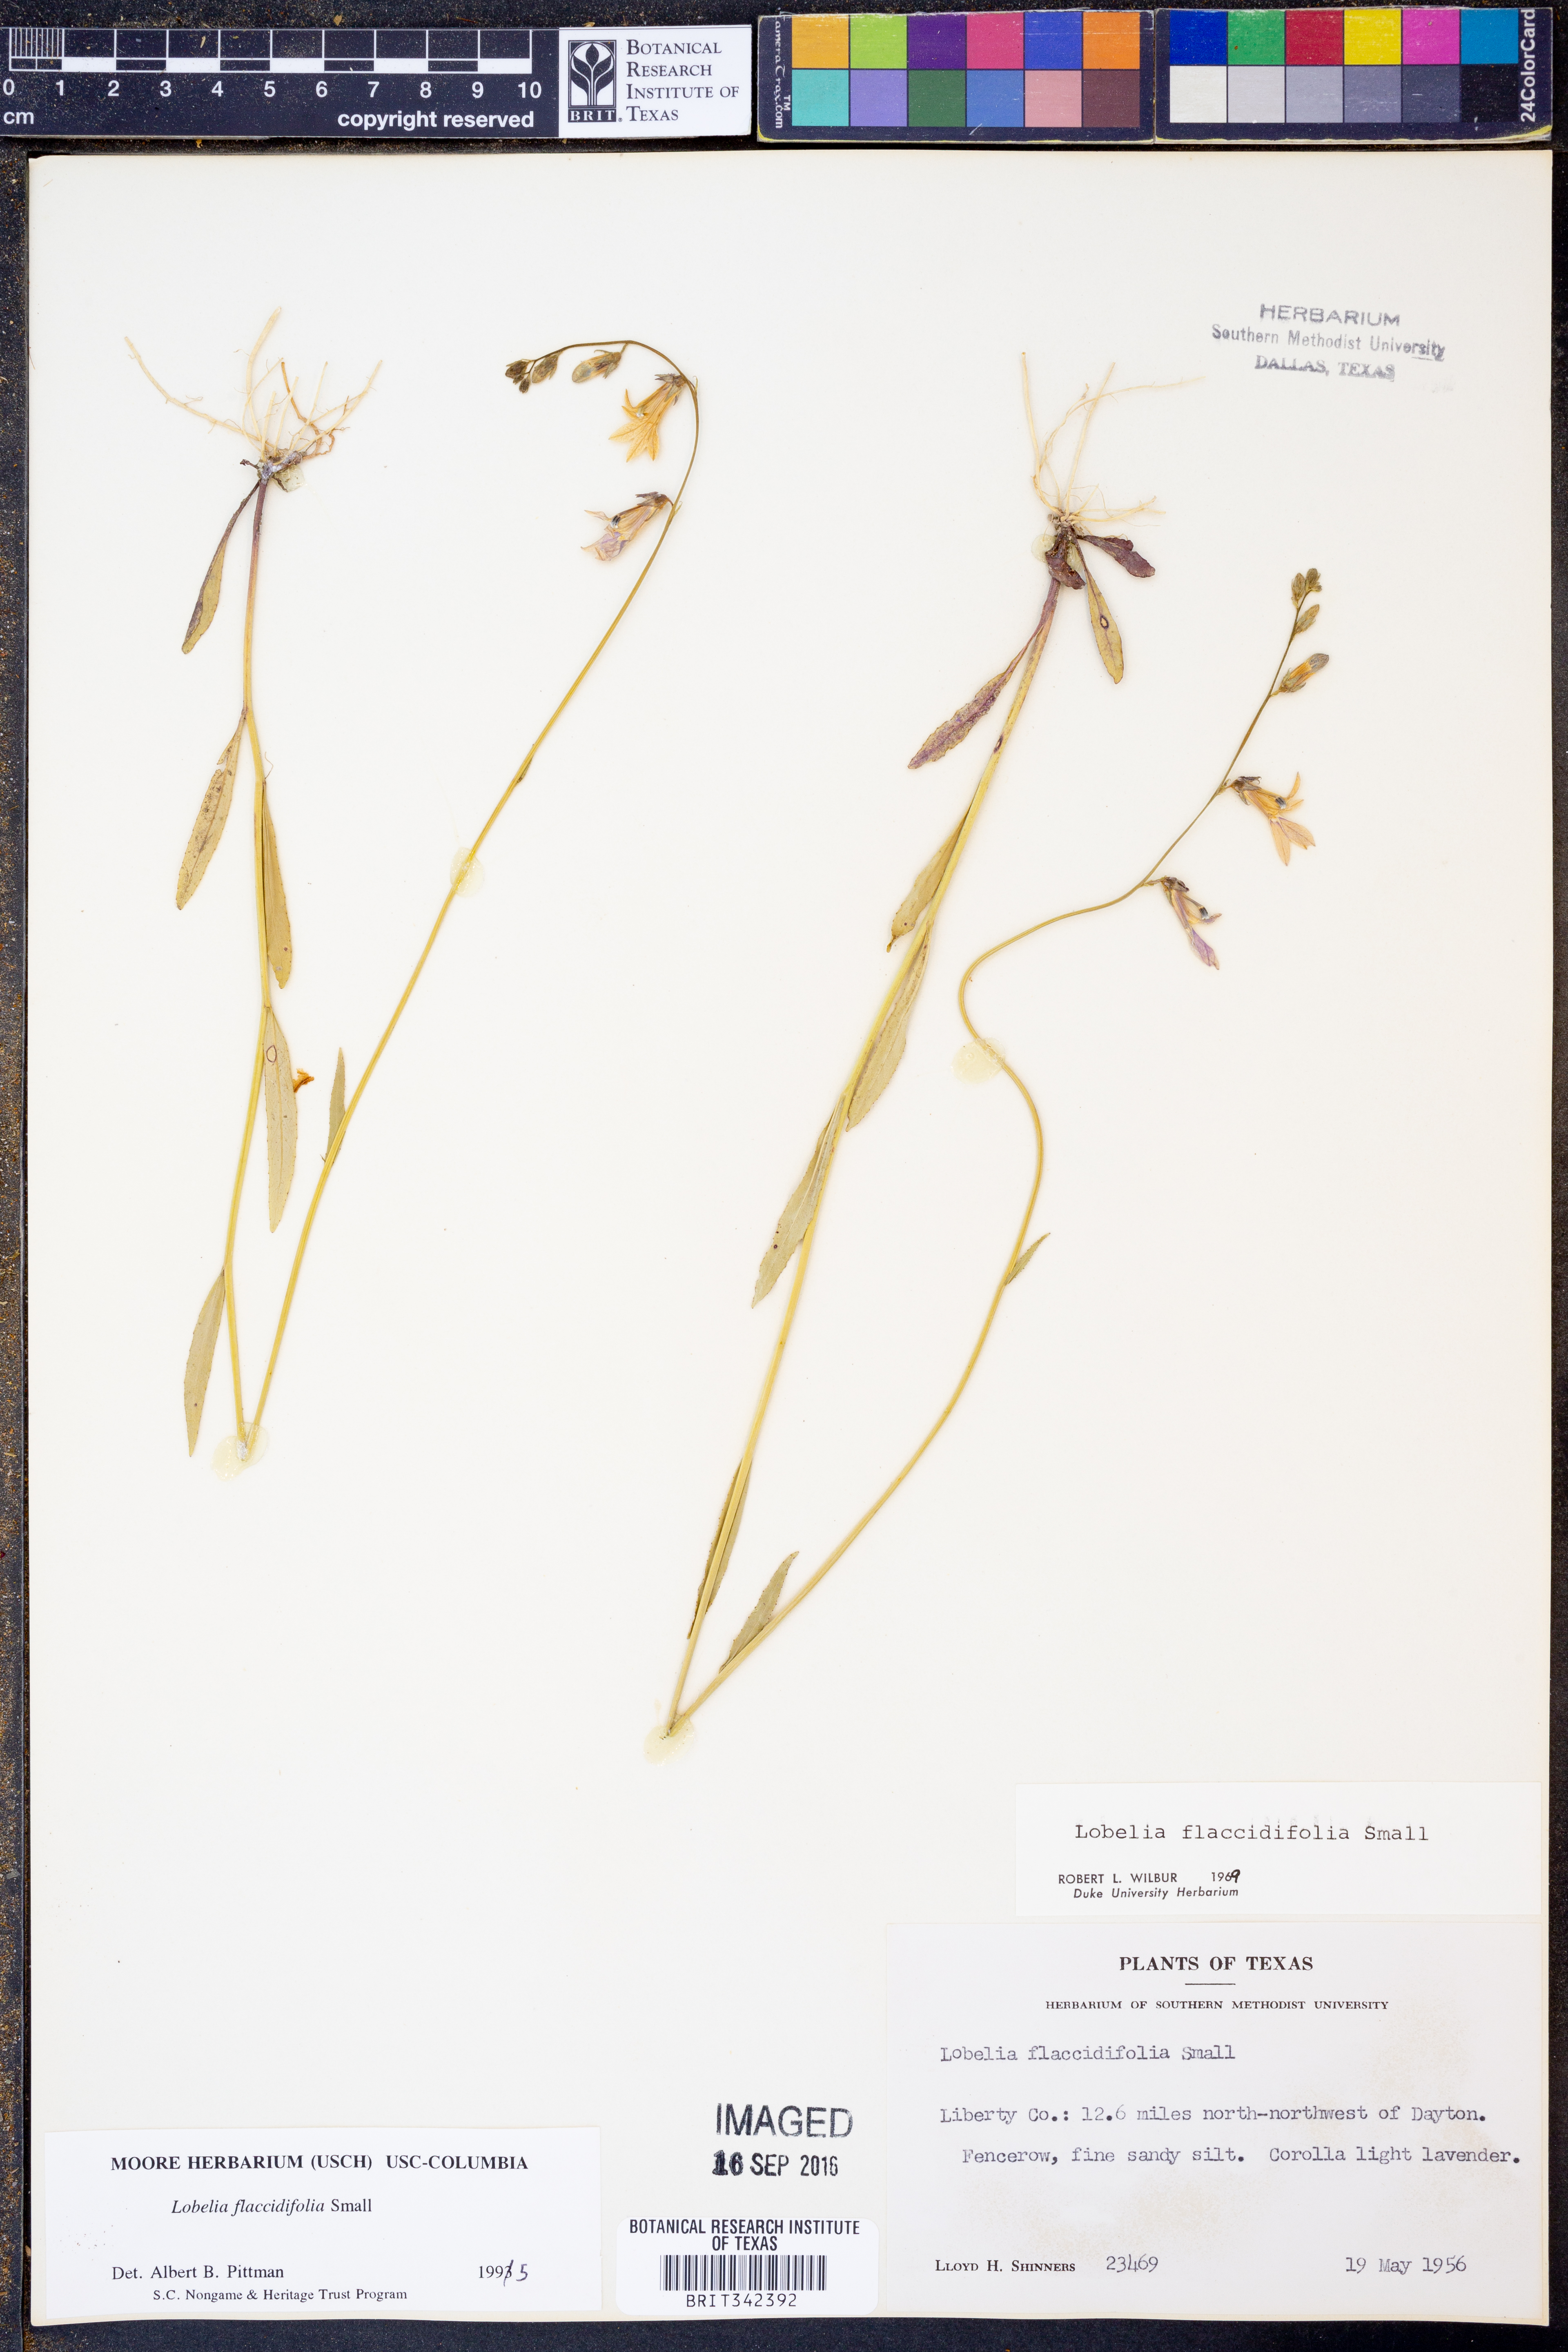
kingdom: Plantae
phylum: Tracheophyta
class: Magnoliopsida
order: Asterales
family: Campanulaceae
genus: Lobelia
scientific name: Lobelia flaccidifolia
